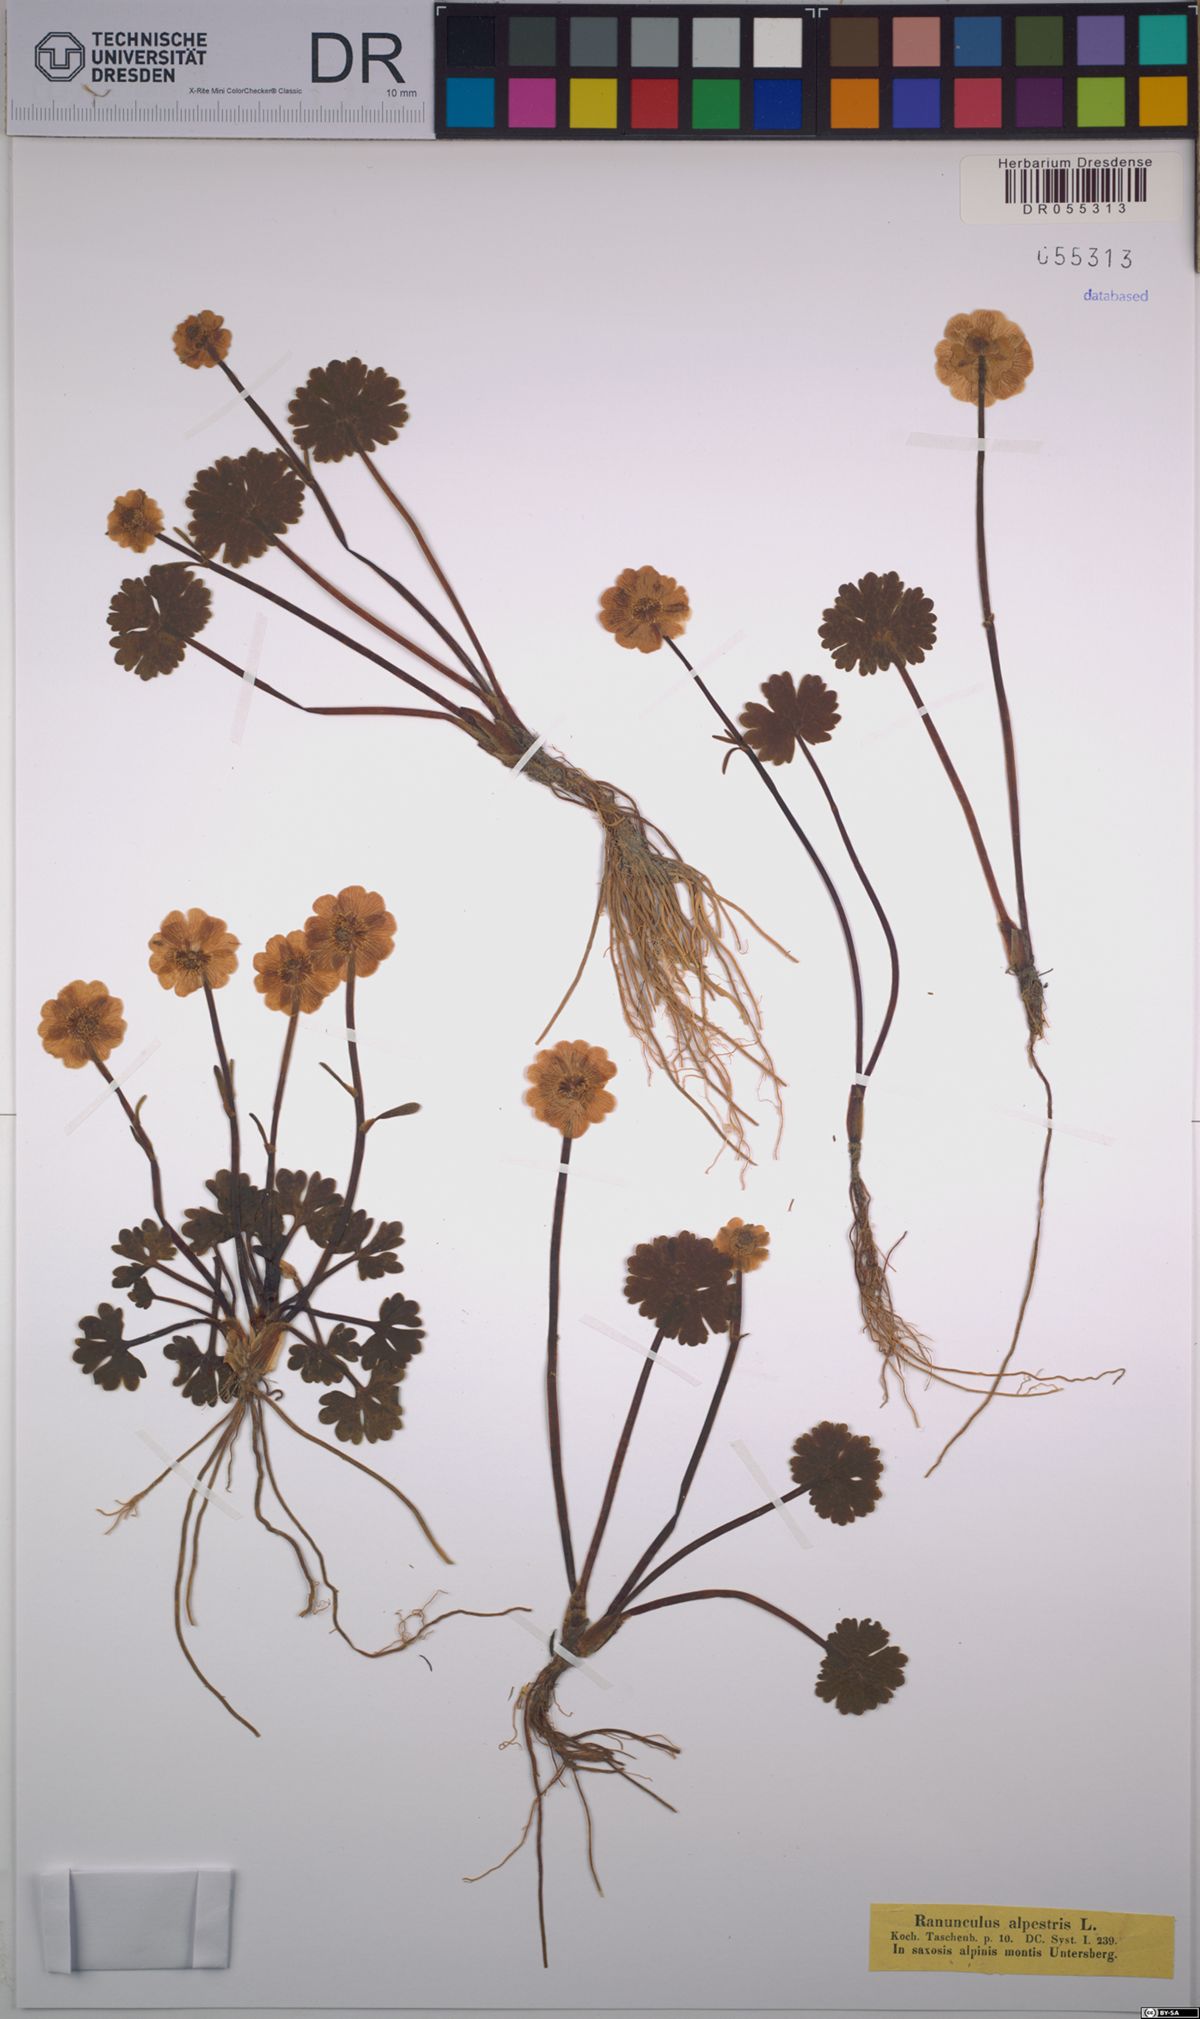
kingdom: Plantae
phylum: Tracheophyta
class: Magnoliopsida
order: Ranunculales
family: Ranunculaceae
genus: Ranunculus
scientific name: Ranunculus alpestris
